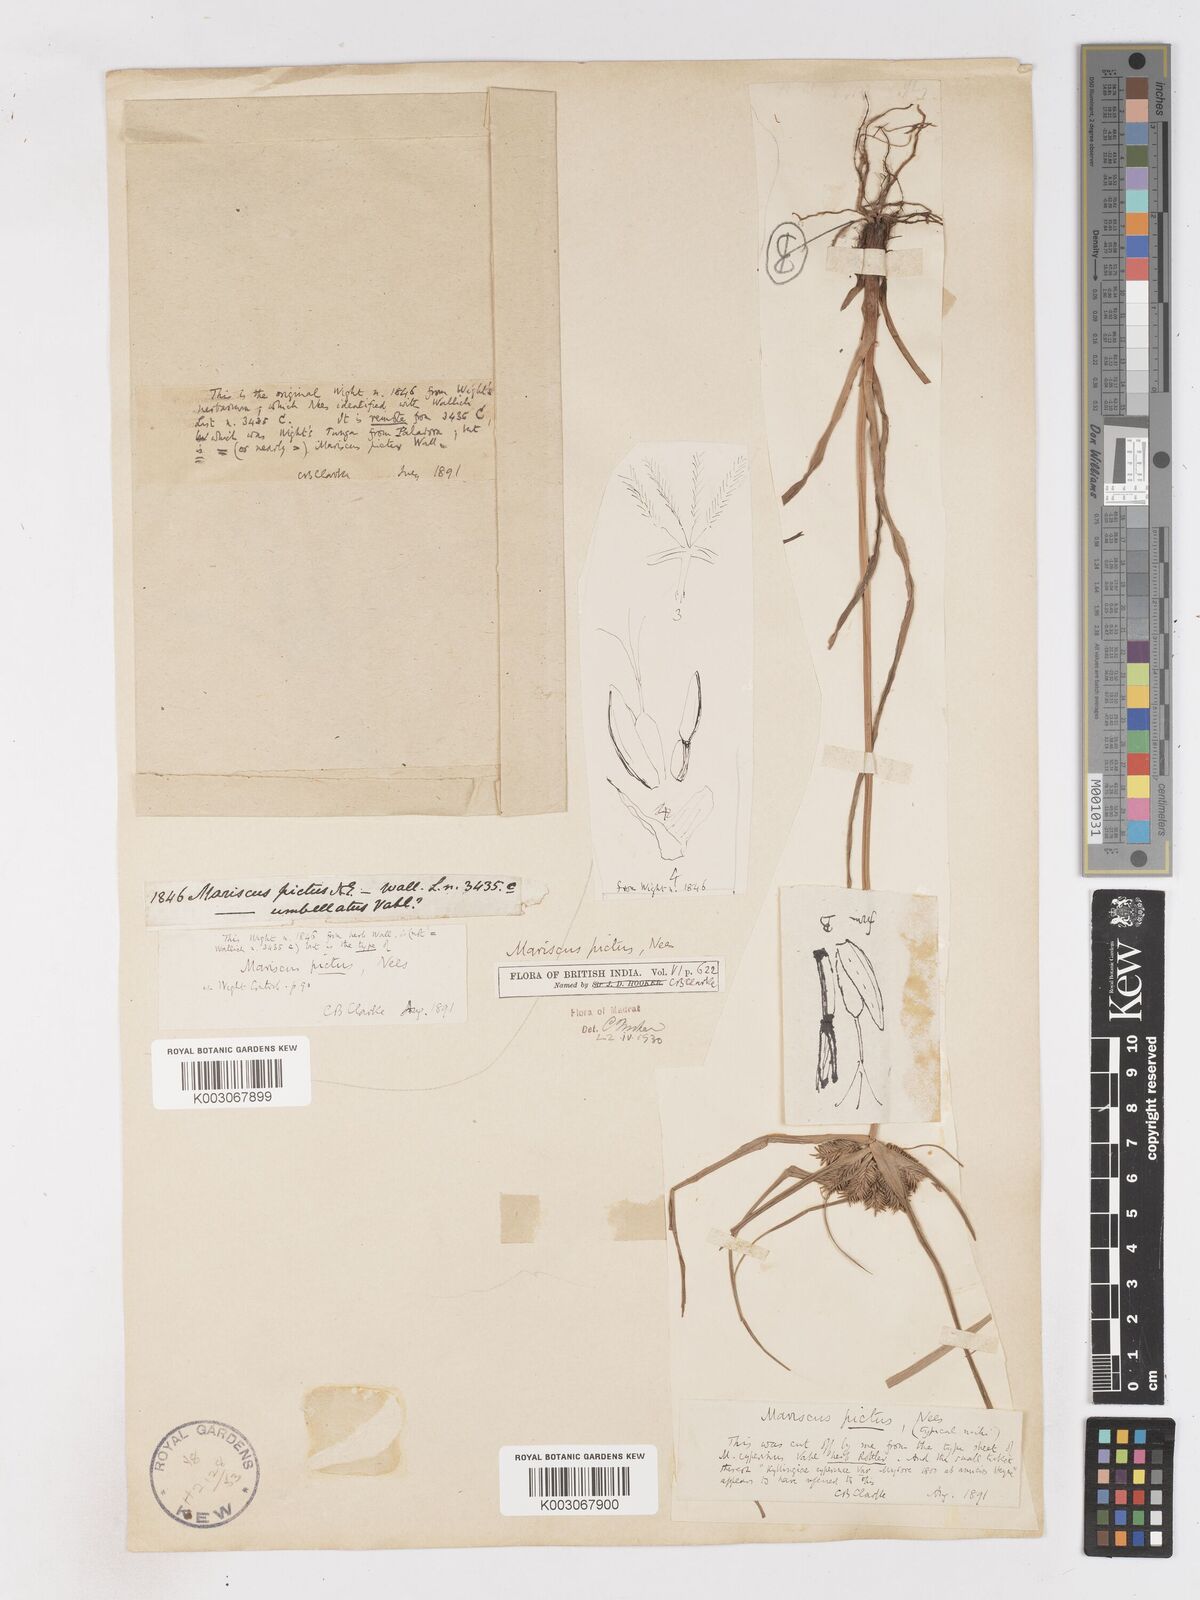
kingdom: Plantae
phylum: Tracheophyta
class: Liliopsida
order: Poales
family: Cyperaceae
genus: Cyperus
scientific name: Cyperus cyperinus
